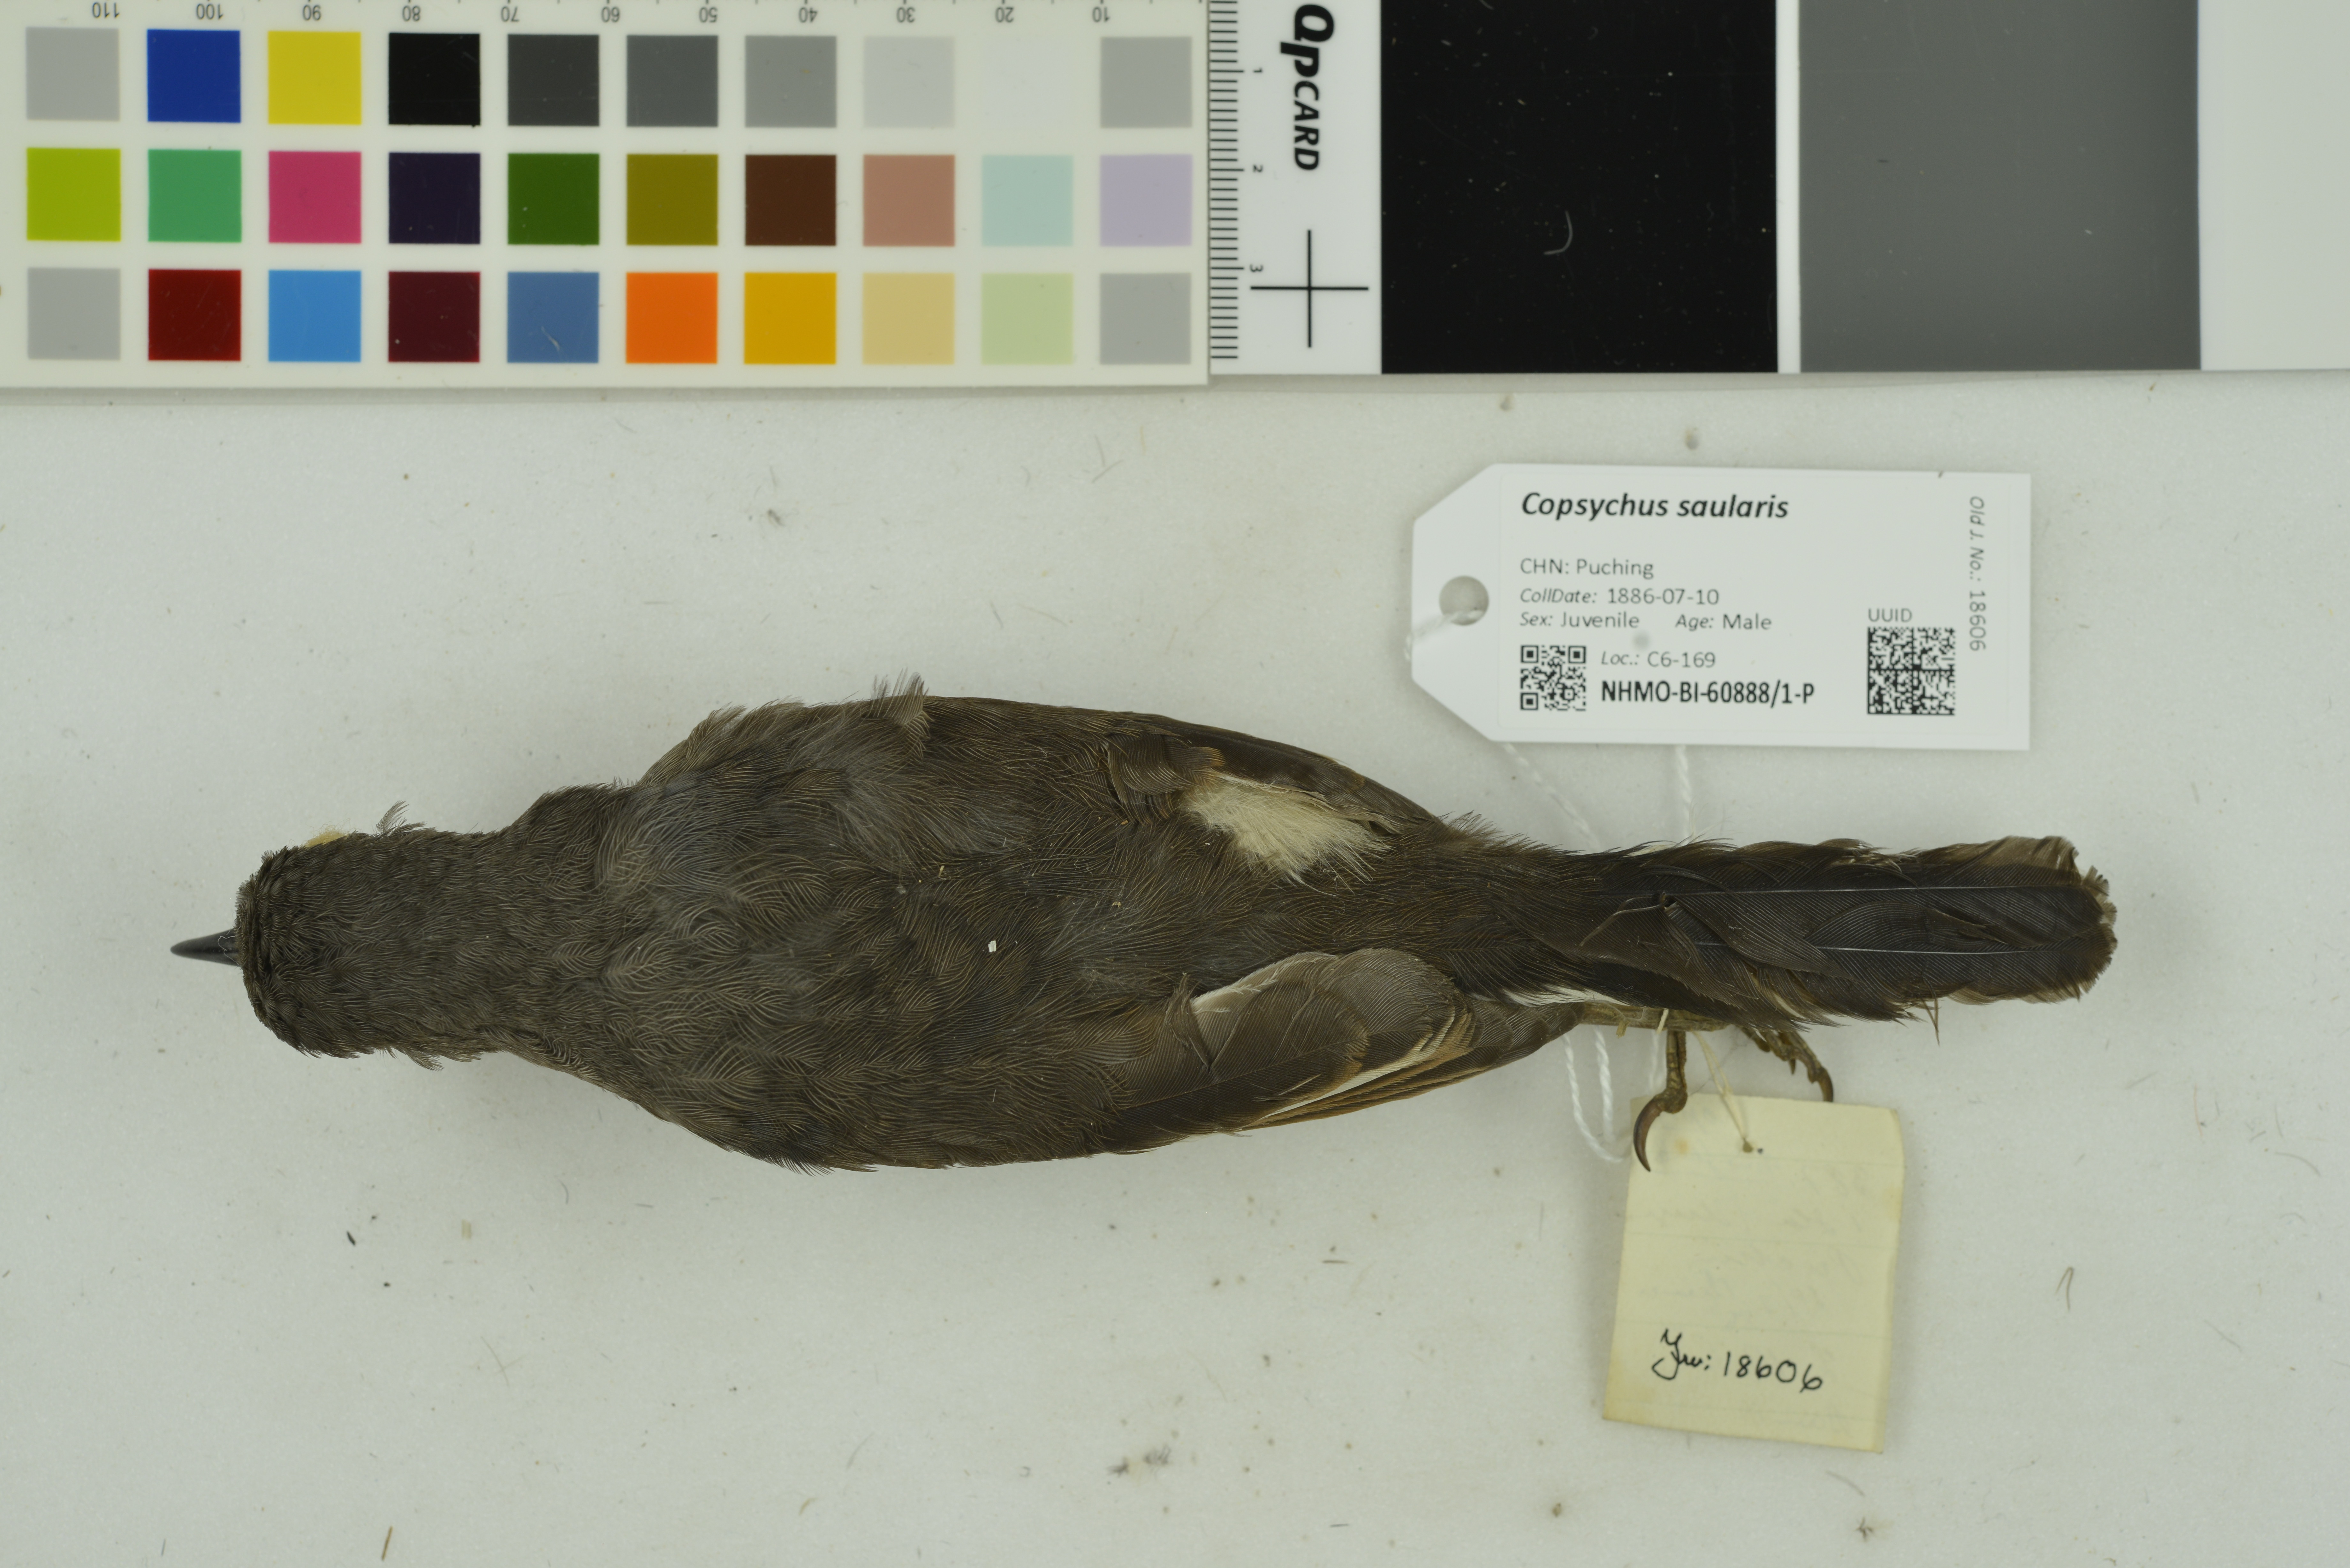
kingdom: Animalia
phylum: Chordata
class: Aves
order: Passeriformes
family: Muscicapidae
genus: Copsychus
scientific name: Copsychus saularis
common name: Oriental magpie-robin
